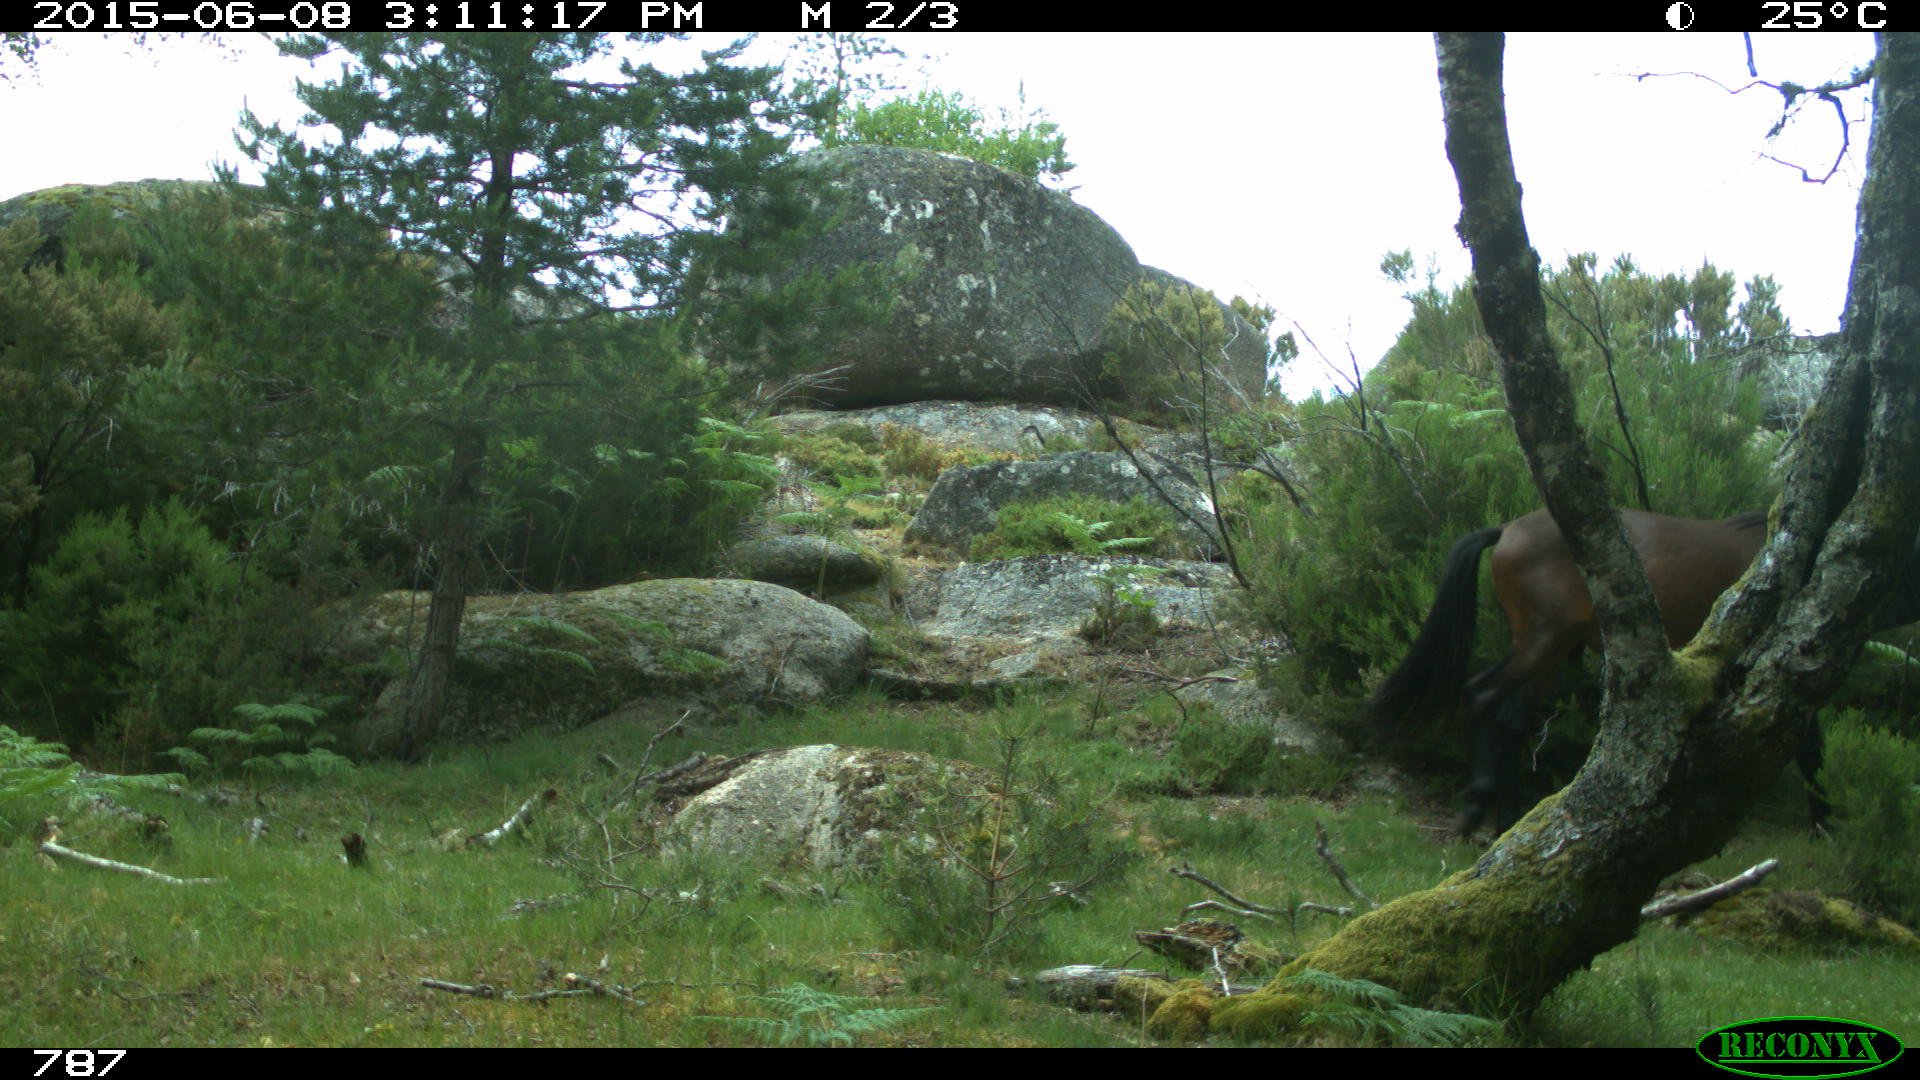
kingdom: Animalia
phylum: Chordata
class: Mammalia
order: Perissodactyla
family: Equidae
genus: Equus
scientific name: Equus caballus
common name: Horse
